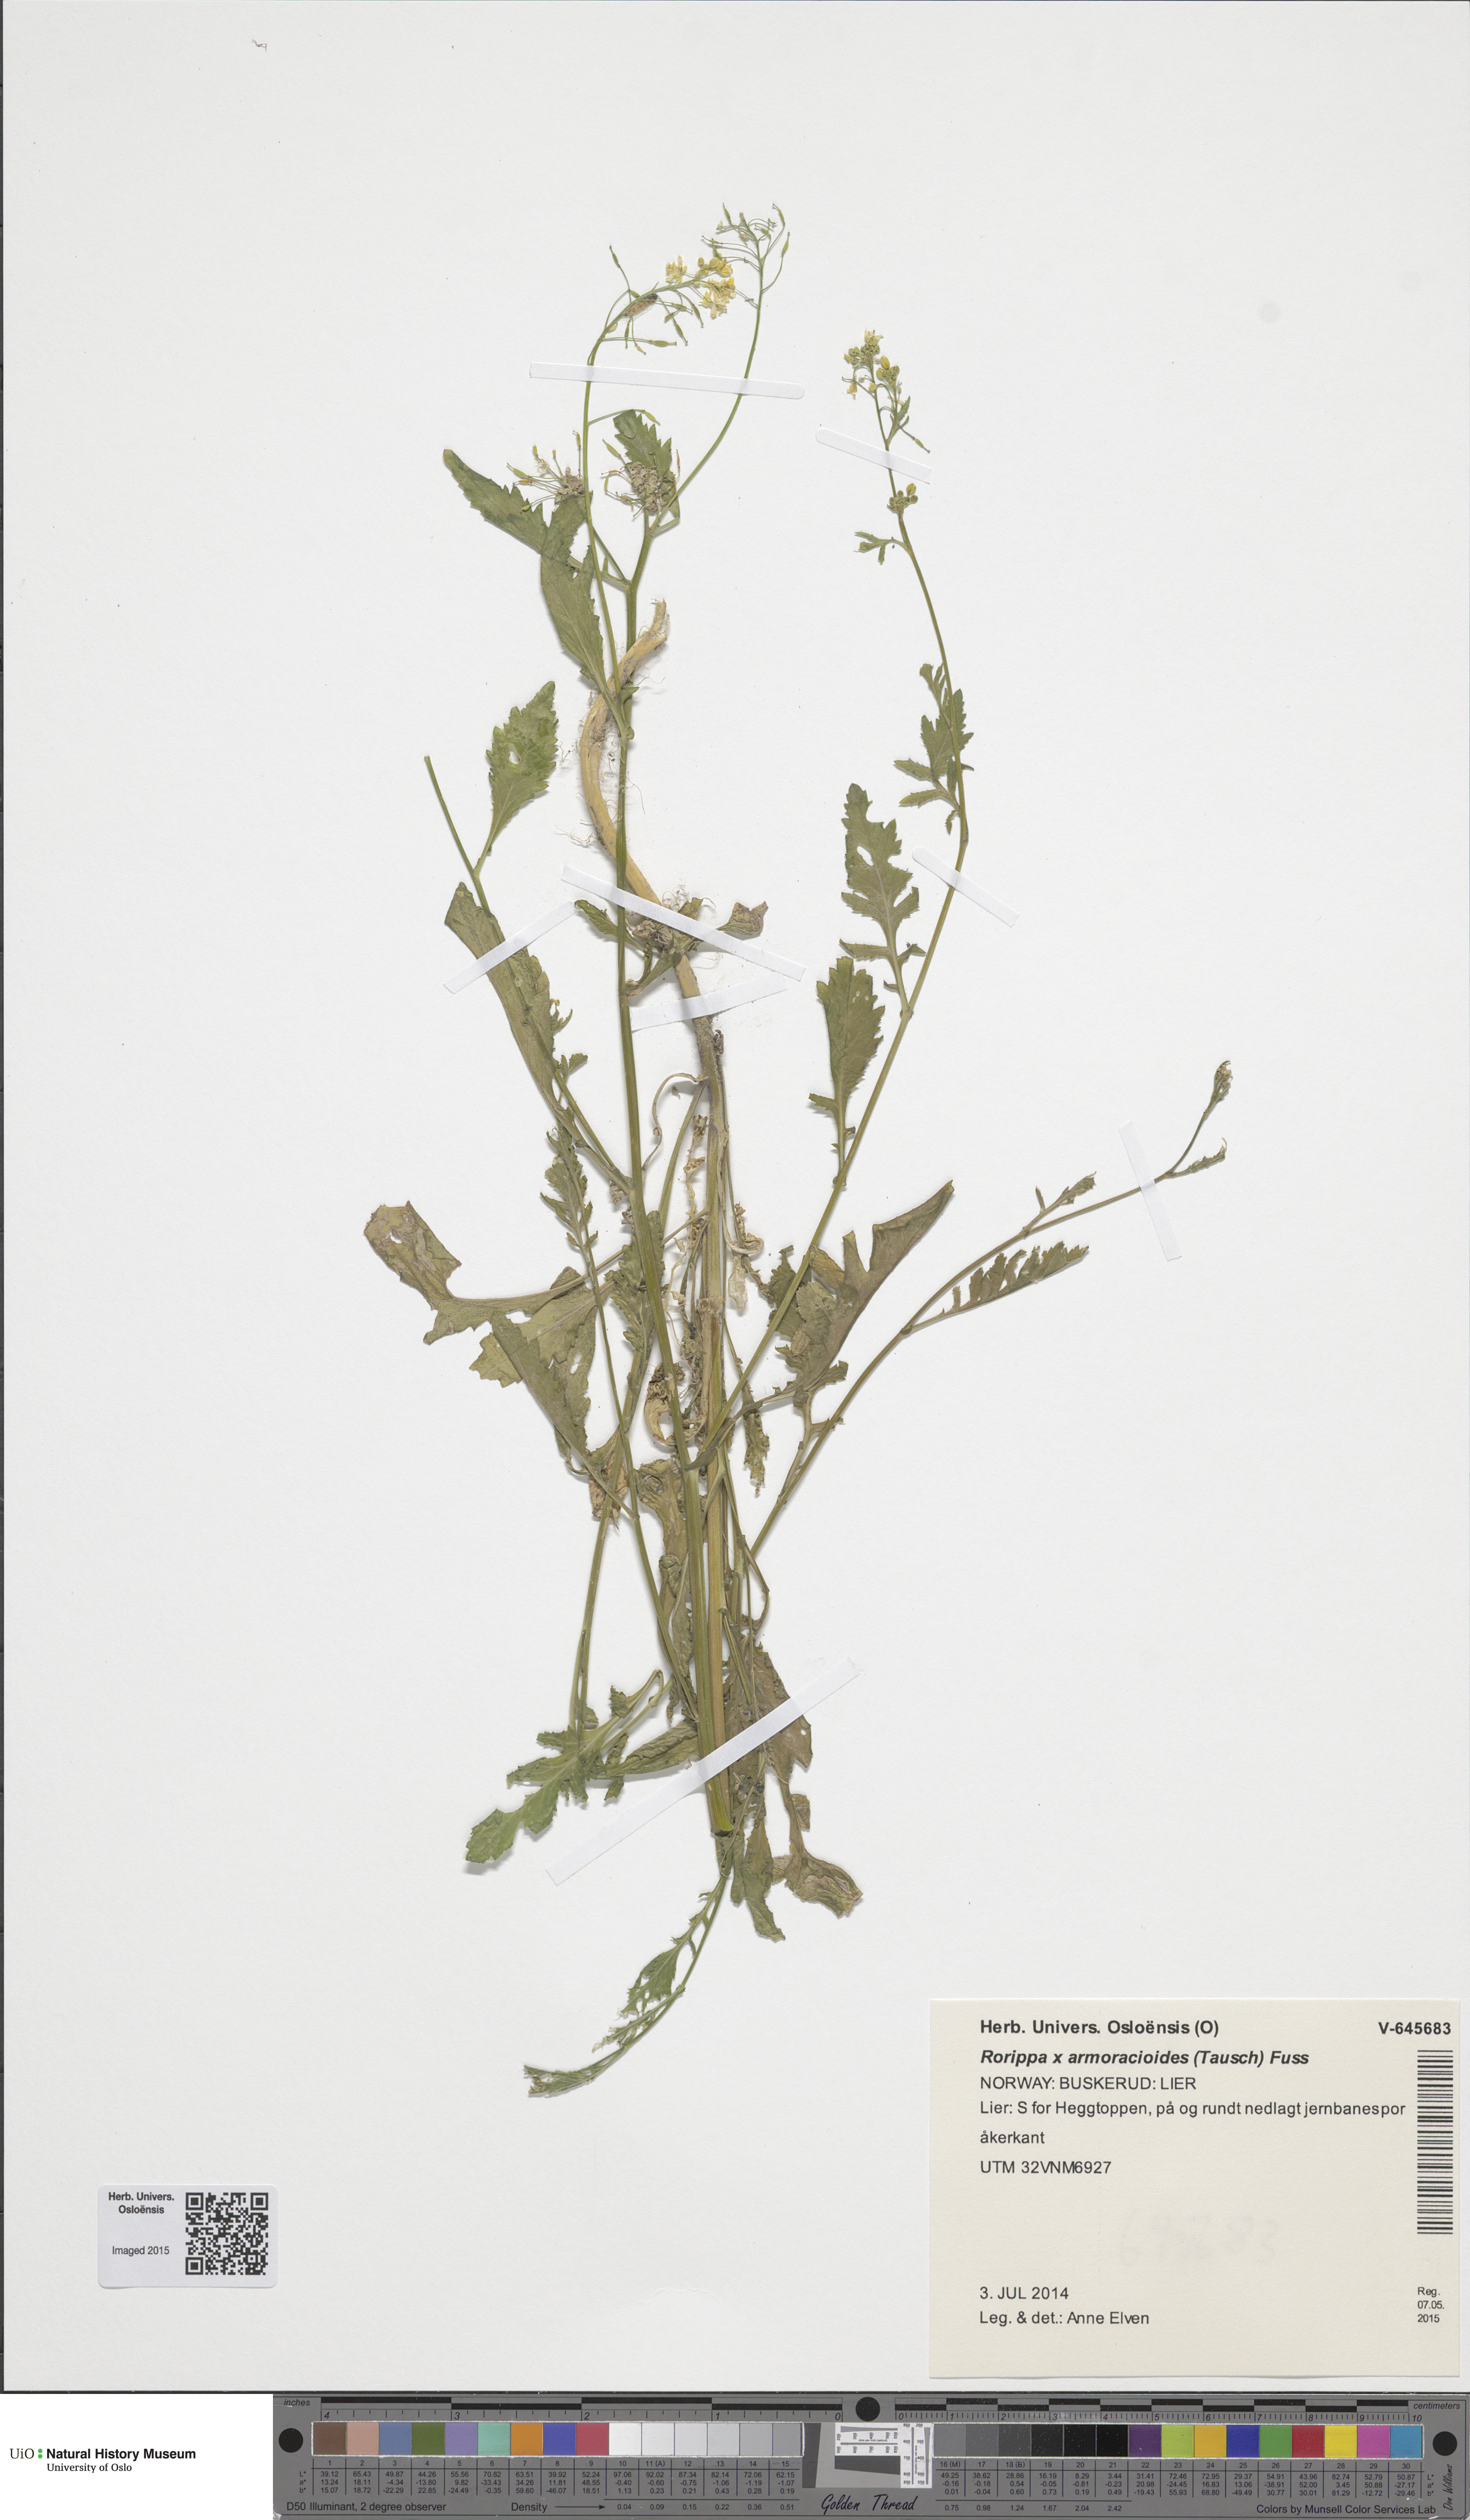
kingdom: Plantae
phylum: Tracheophyta
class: Magnoliopsida
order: Brassicales
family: Brassicaceae
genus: Rorippa
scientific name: Rorippa anceps
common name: Rorippa
